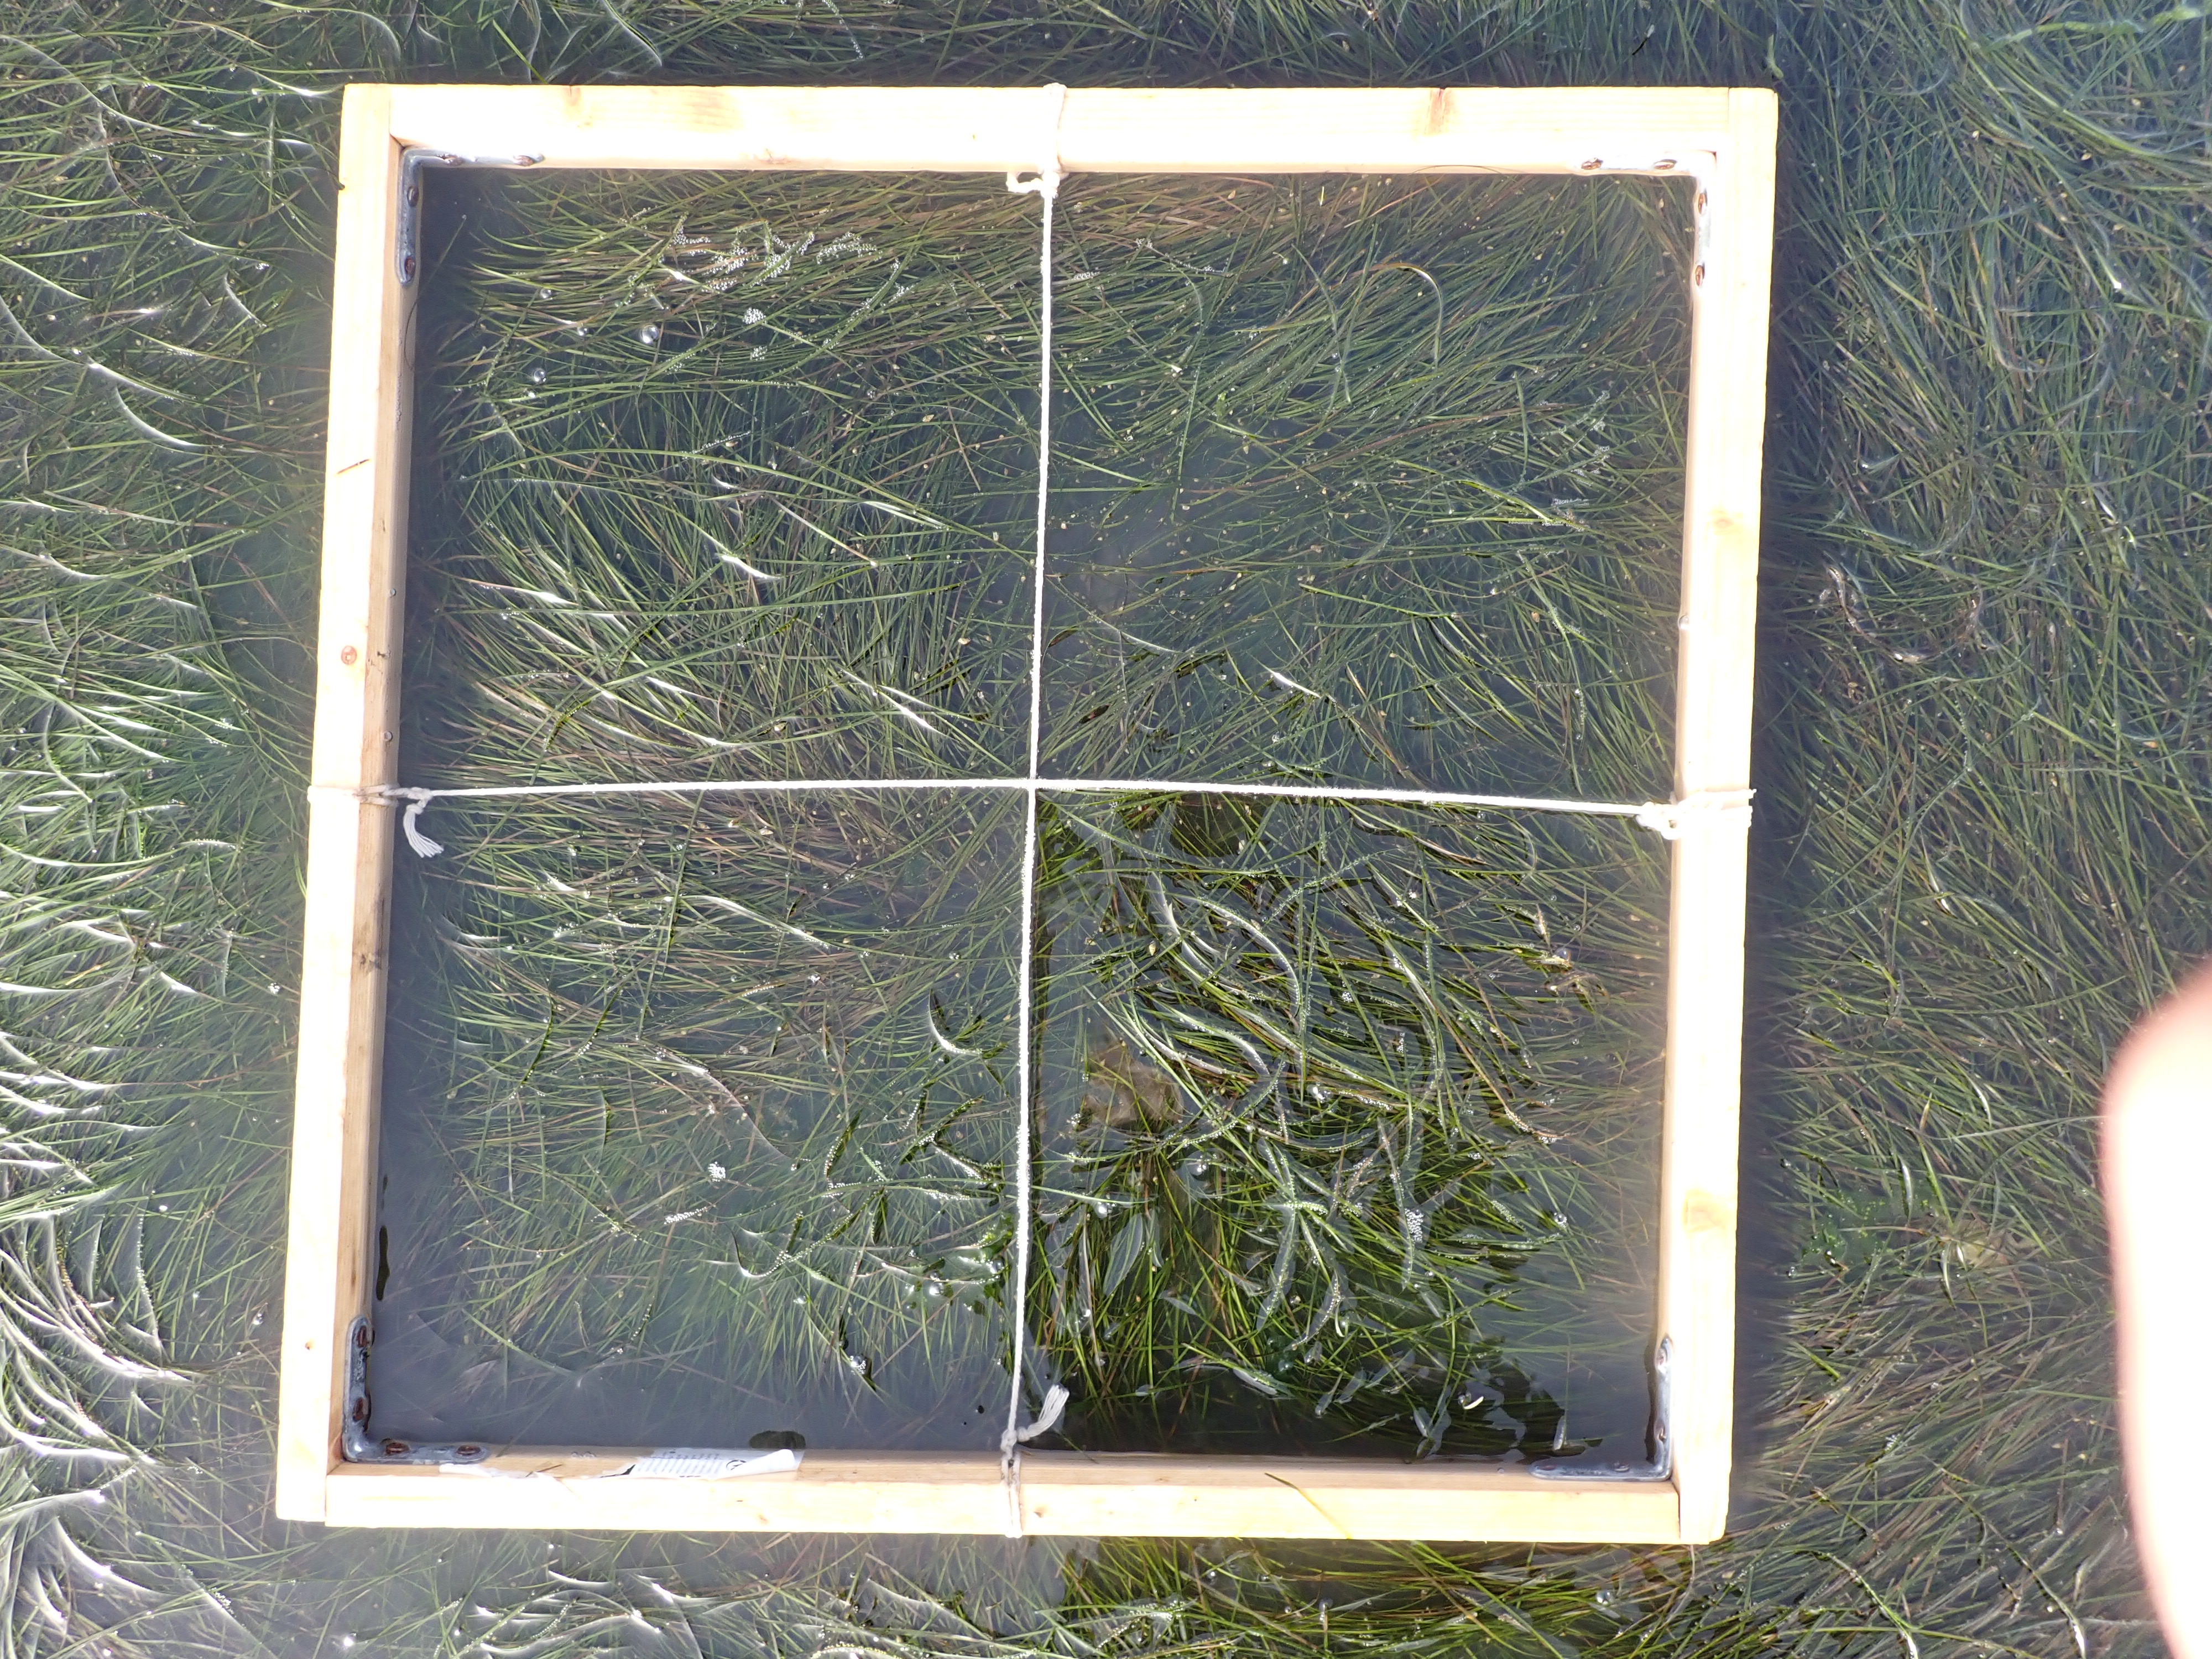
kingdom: Plantae
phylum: Tracheophyta
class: Liliopsida
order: Alismatales
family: Zosteraceae
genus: Zostera
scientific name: Zostera noltii
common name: Dwarf eelgrass
